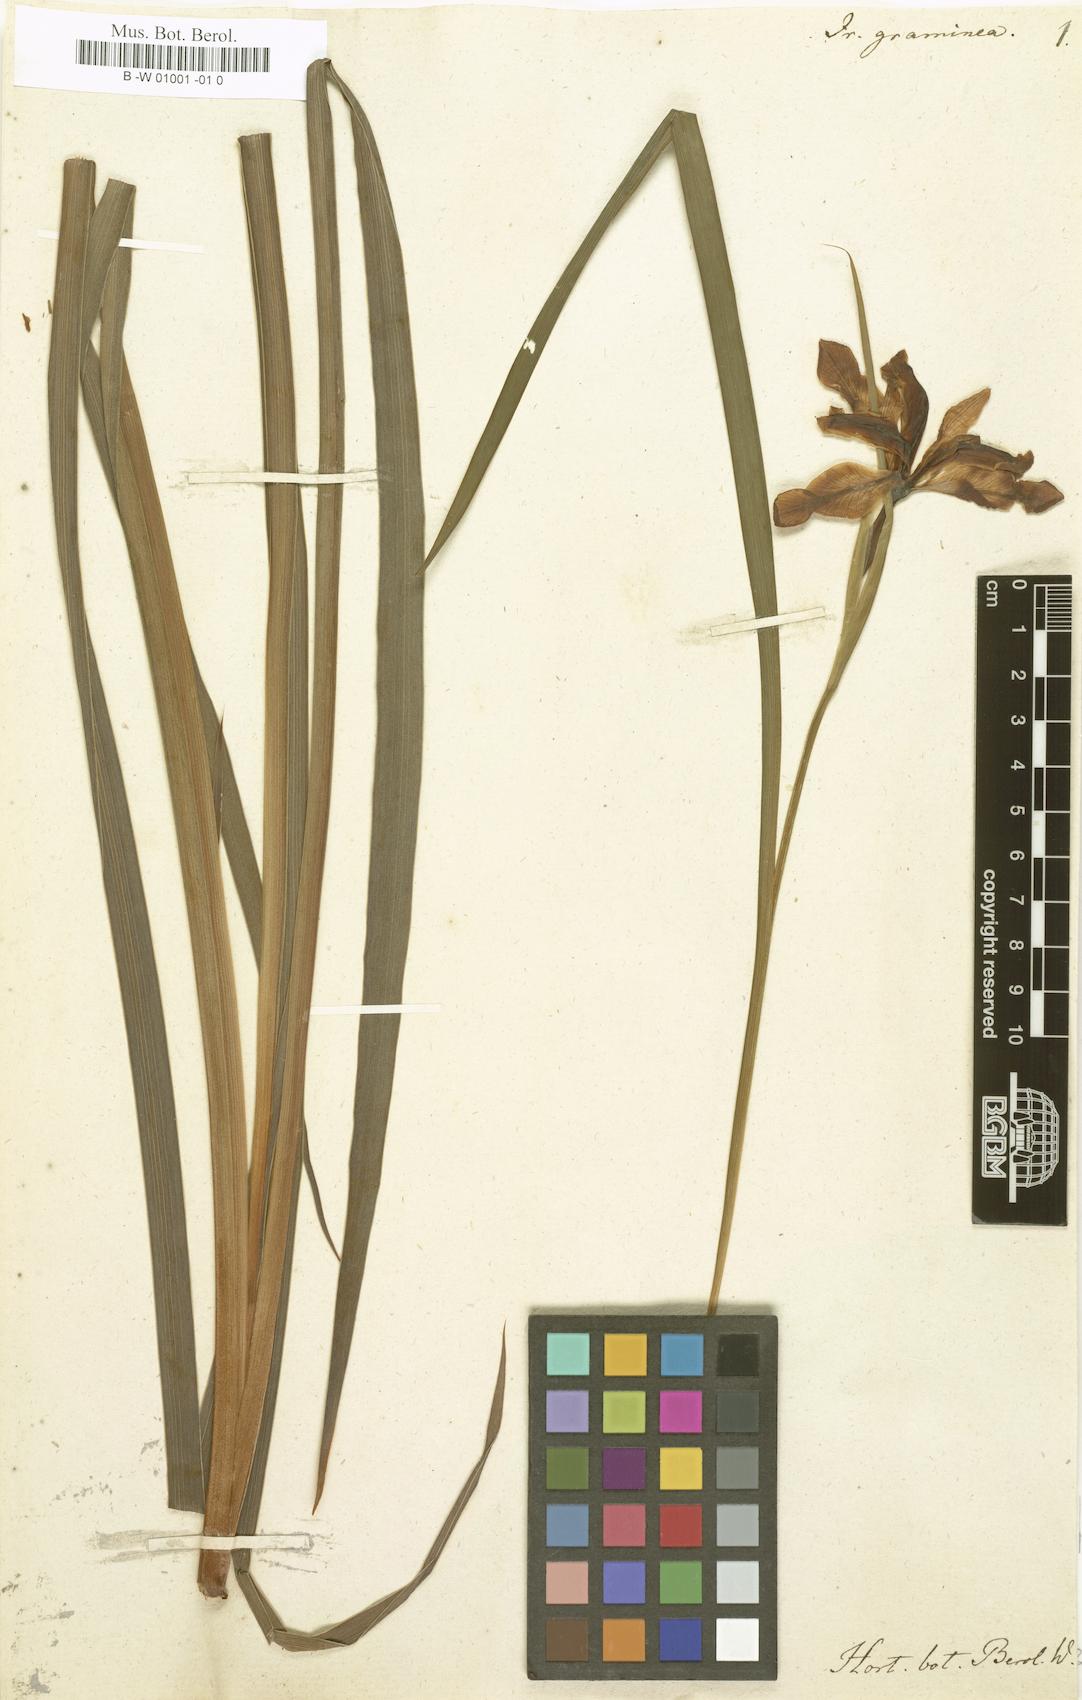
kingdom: Plantae
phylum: Tracheophyta
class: Liliopsida
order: Asparagales
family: Iridaceae
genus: Iris
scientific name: Iris graminea
